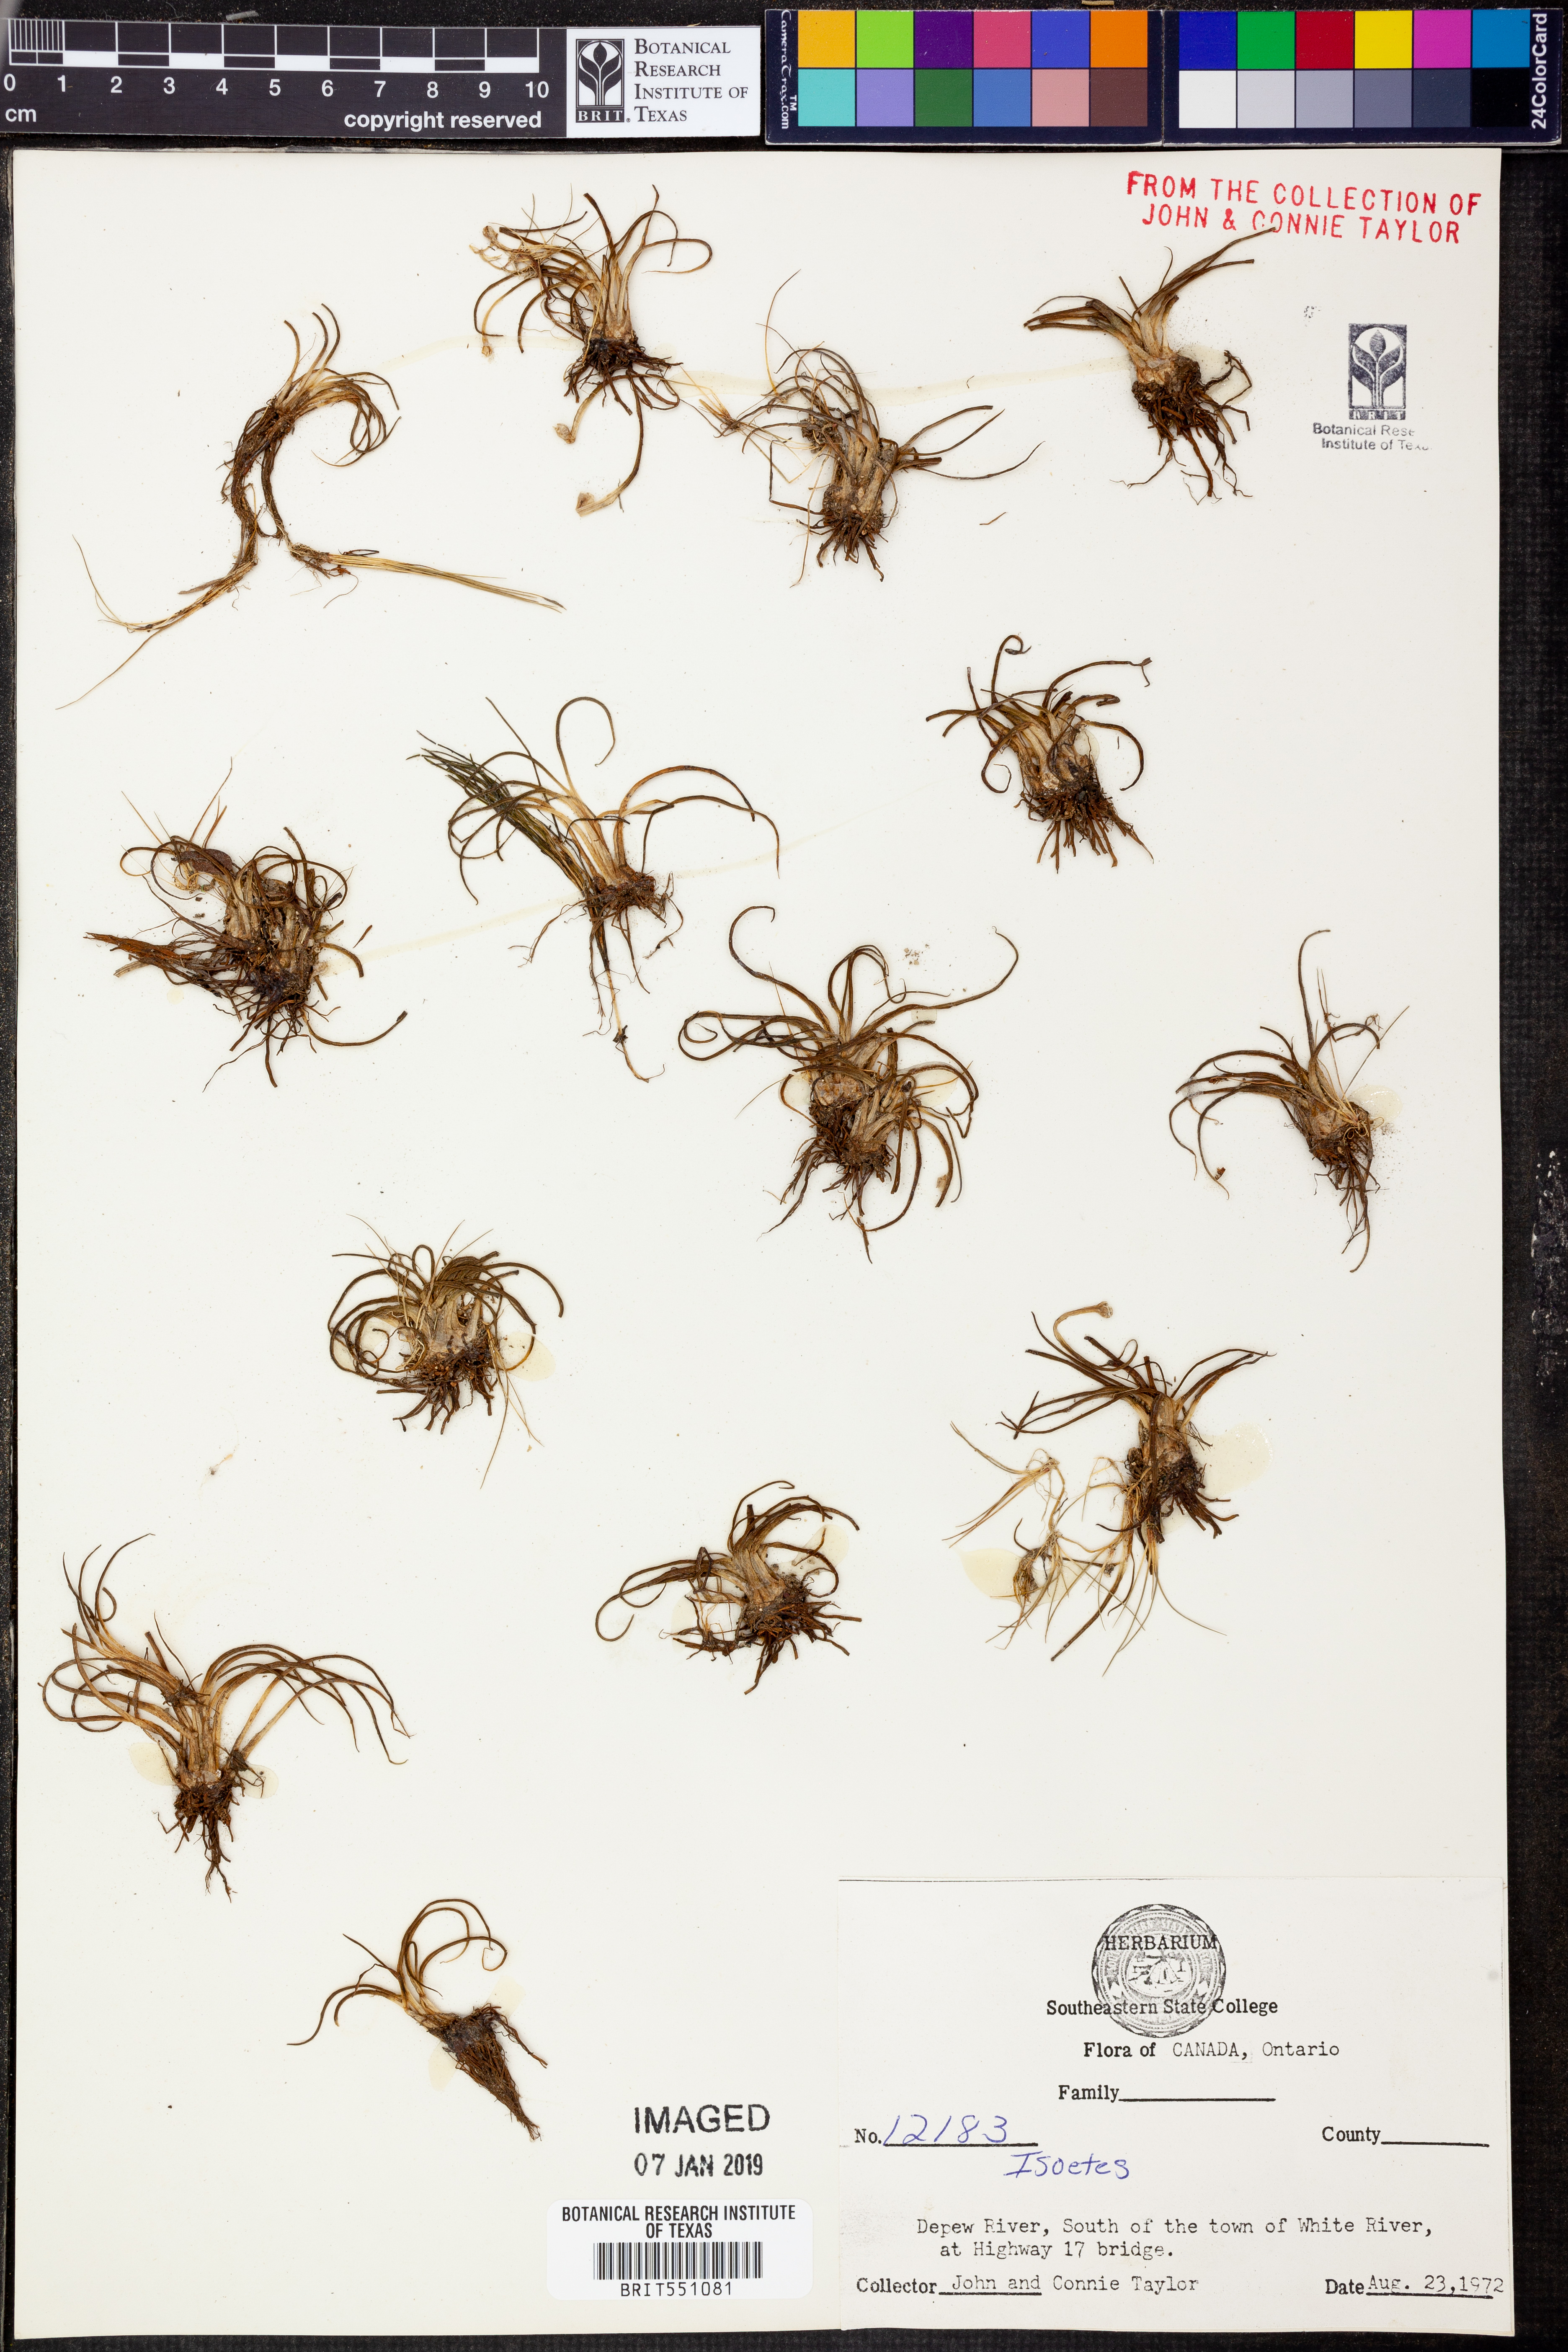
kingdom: Plantae
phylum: Tracheophyta
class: Lycopodiopsida
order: Isoetales
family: Isoetaceae
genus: Isoetes
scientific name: Isoetes
